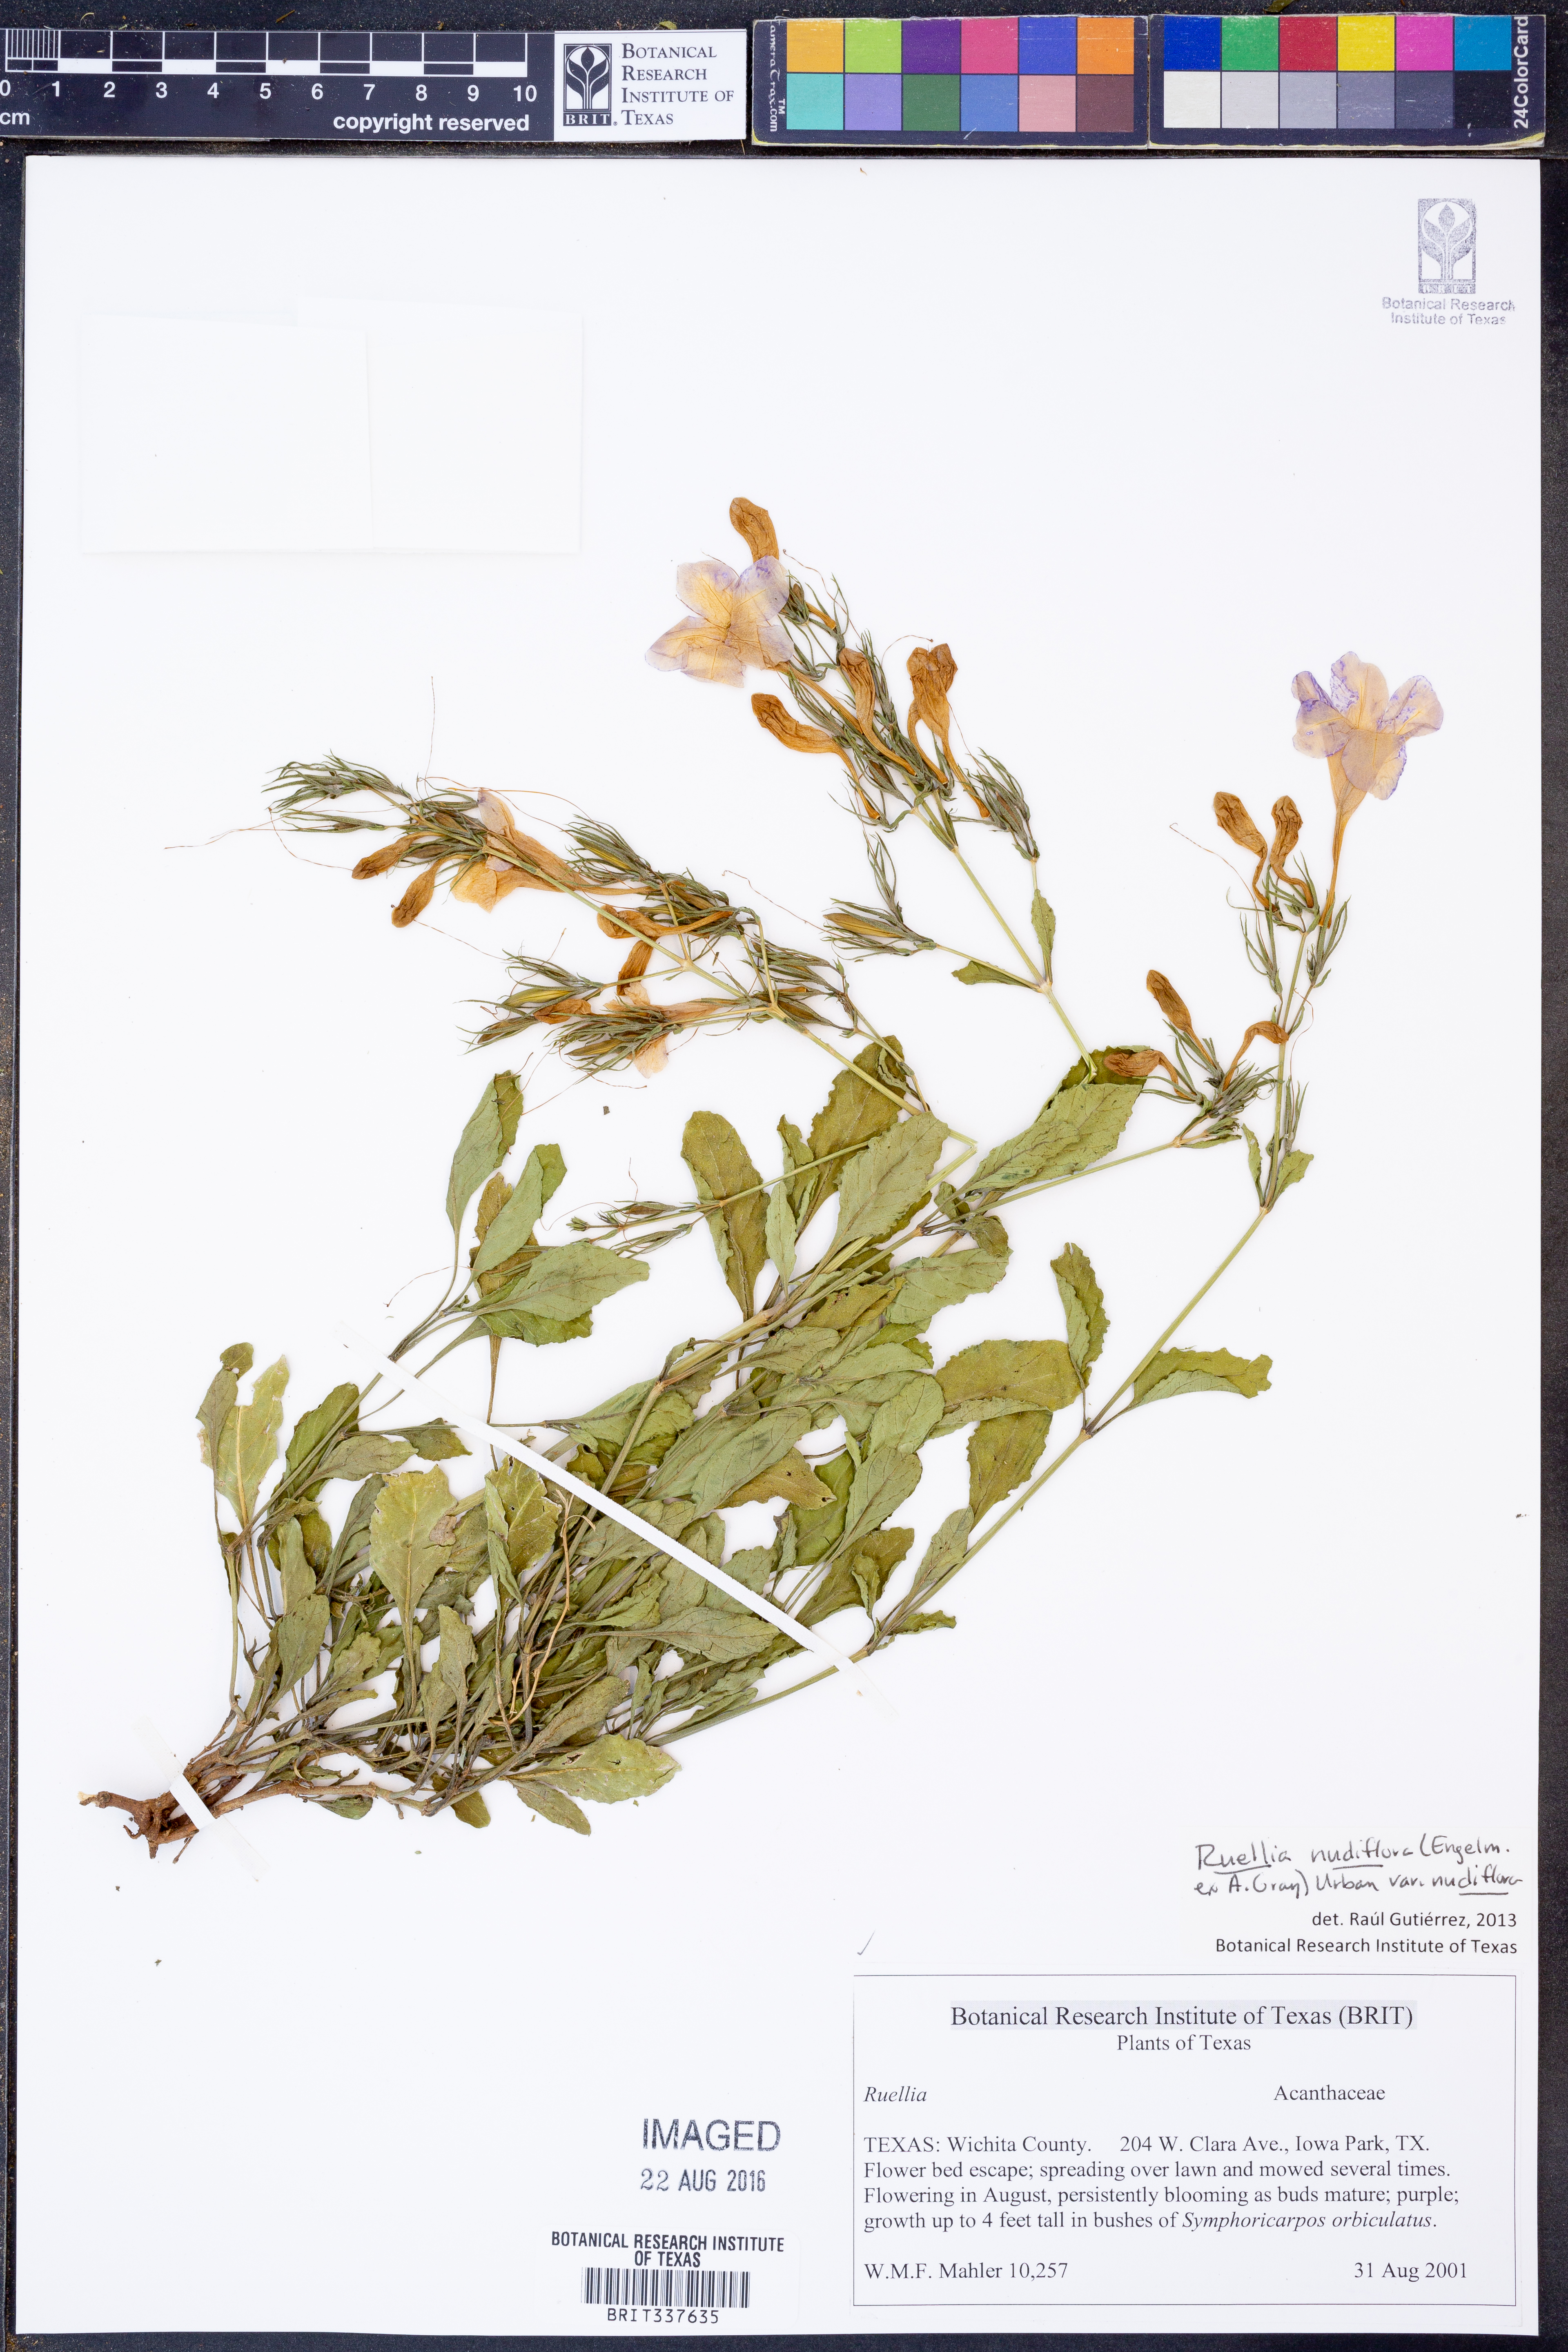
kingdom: Plantae
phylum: Tracheophyta
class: Magnoliopsida
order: Lamiales
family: Acanthaceae
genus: Ruellia
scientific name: Ruellia ciliatiflora
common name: Hairyflower wild petunia
